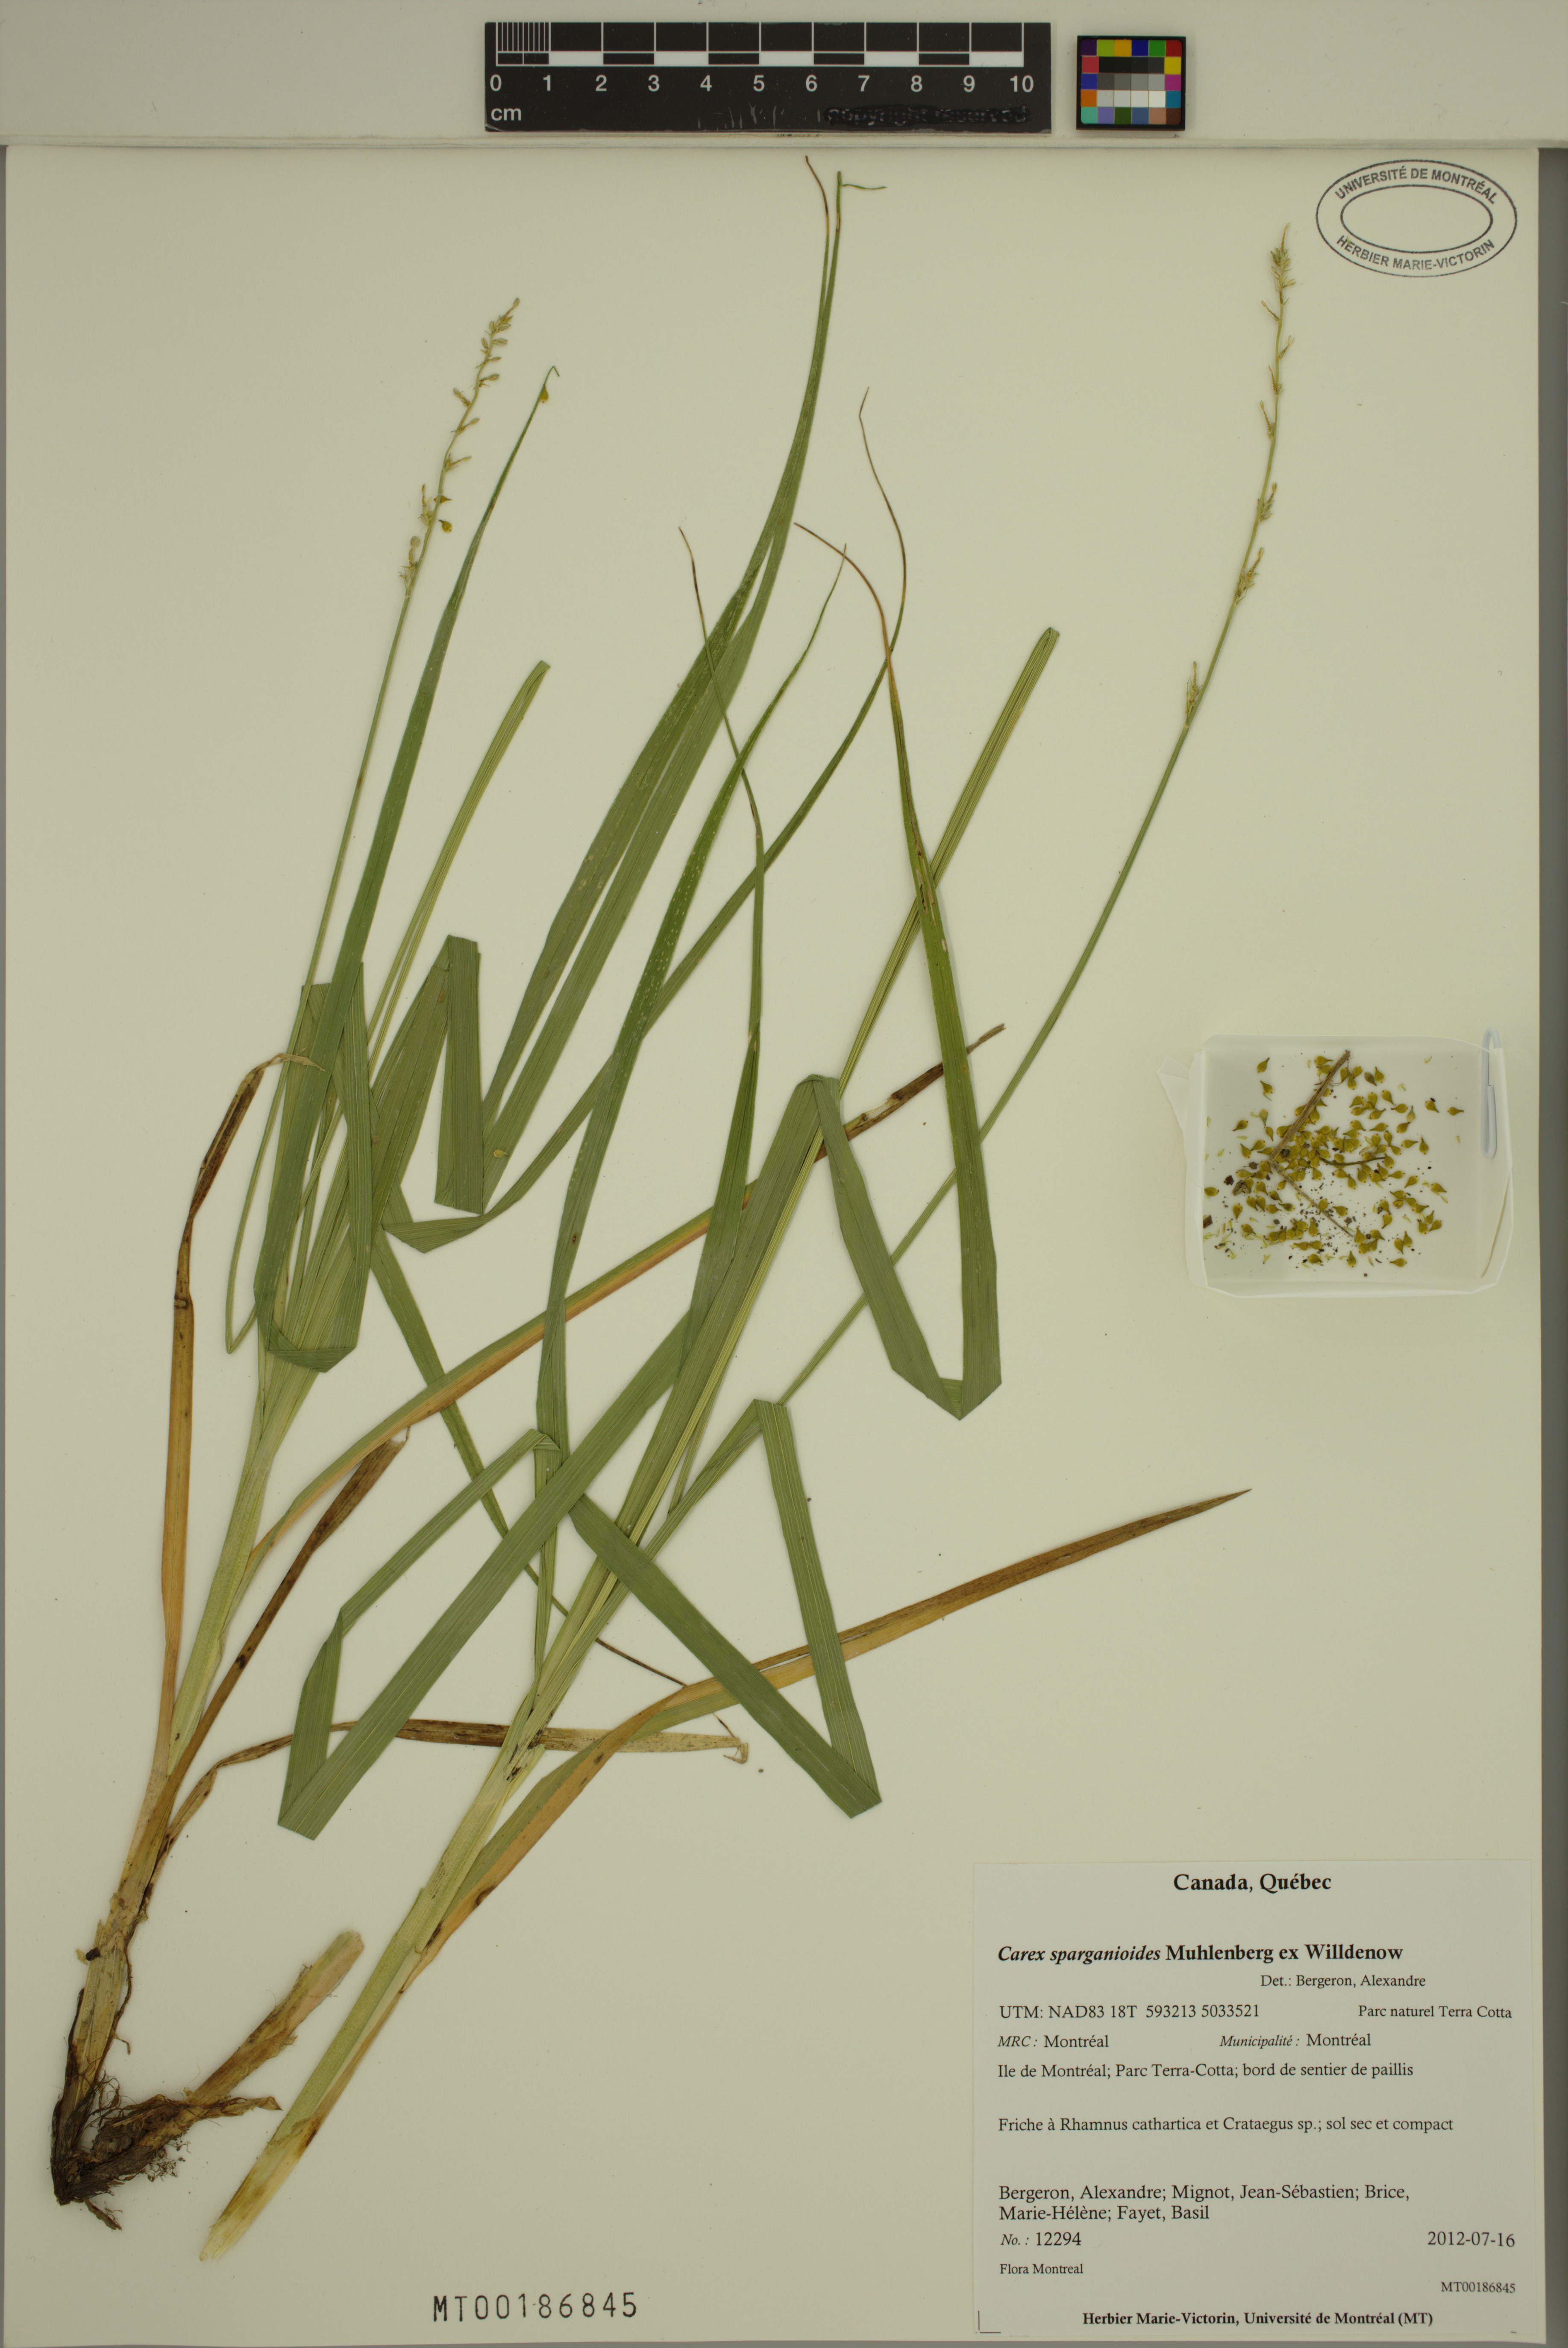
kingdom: Plantae
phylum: Tracheophyta
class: Liliopsida
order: Poales
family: Cyperaceae
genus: Carex
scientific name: Carex sparganioides
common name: Burreed sedge
